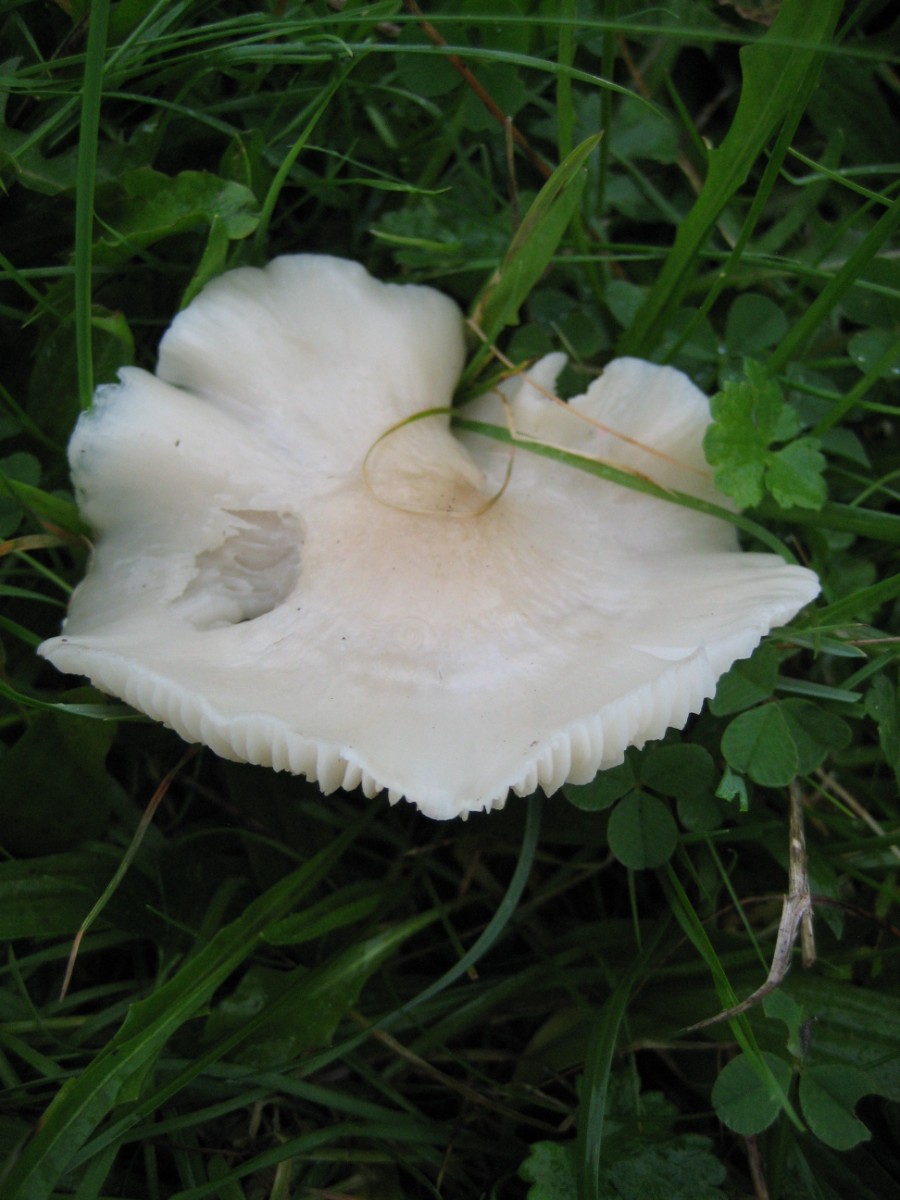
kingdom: Fungi
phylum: Basidiomycota
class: Agaricomycetes
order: Agaricales
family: Hygrophoraceae
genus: Cuphophyllus
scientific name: Cuphophyllus fornicatus
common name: gråbrun vokshat
